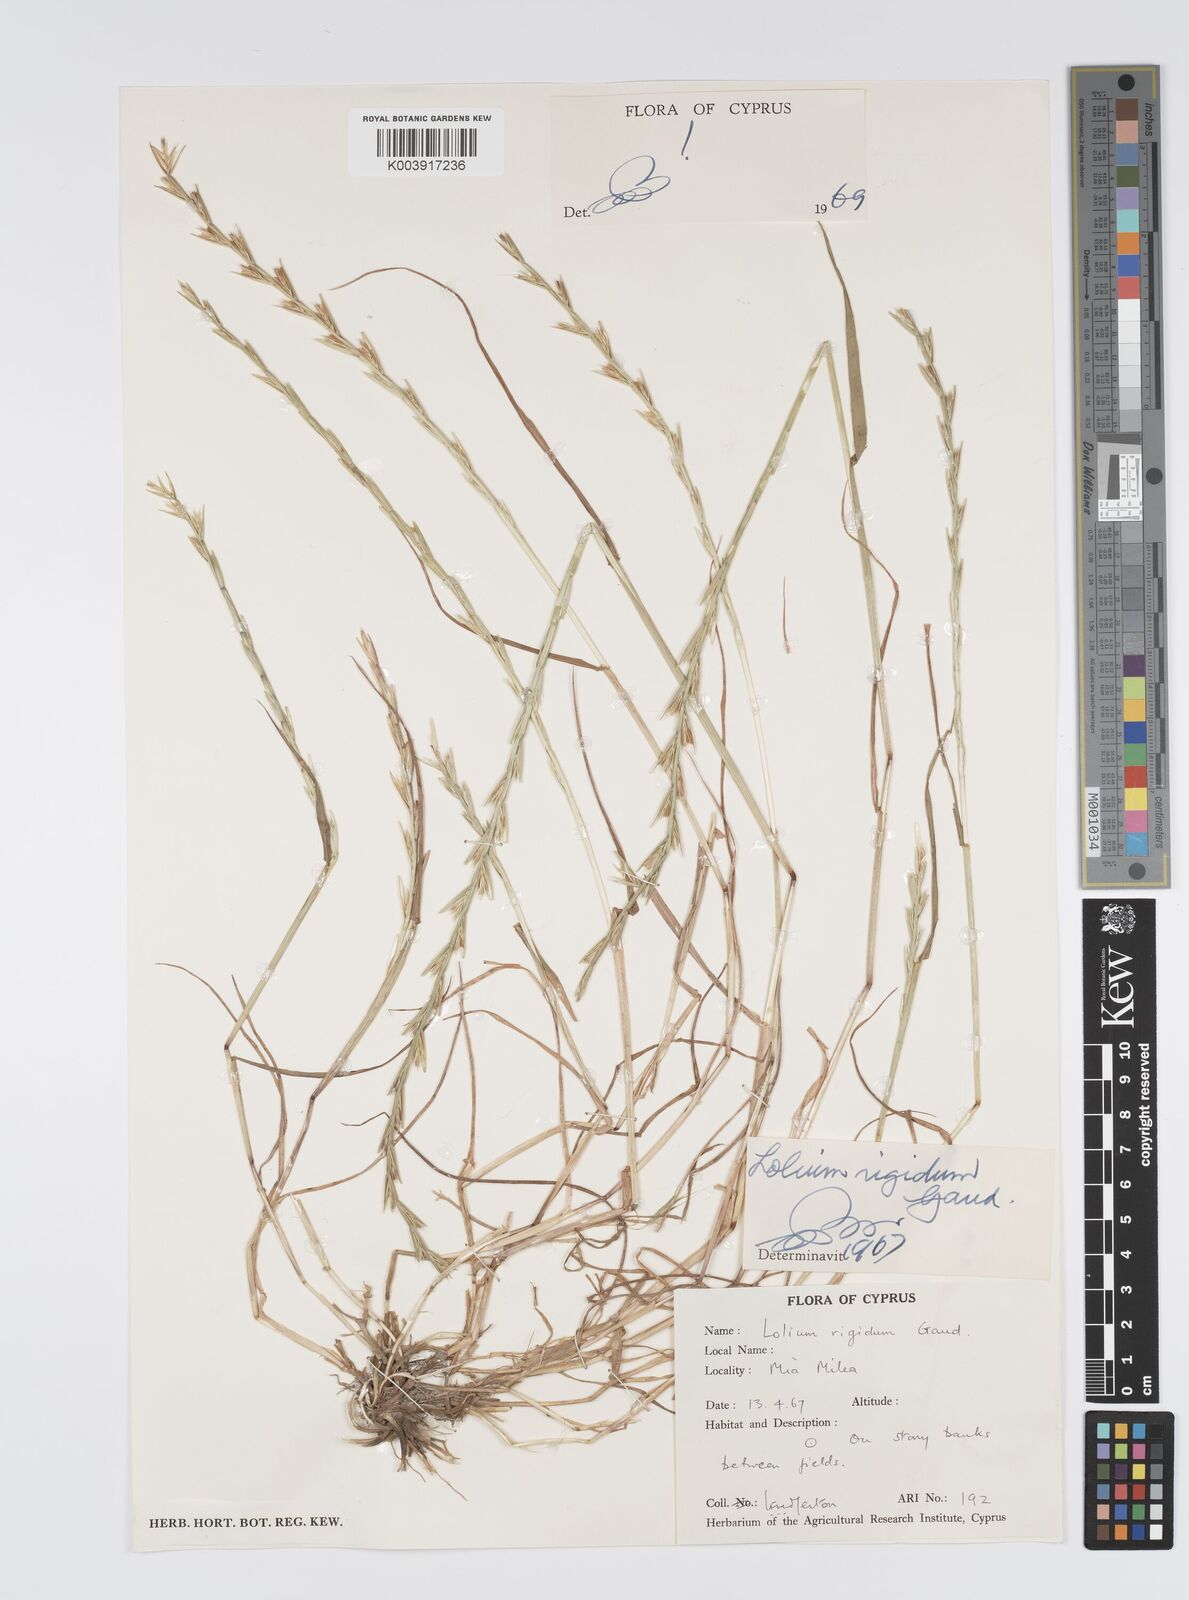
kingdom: Plantae
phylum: Tracheophyta
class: Liliopsida
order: Poales
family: Poaceae
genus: Lolium
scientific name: Lolium rigidum
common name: Wimmera ryegrass
